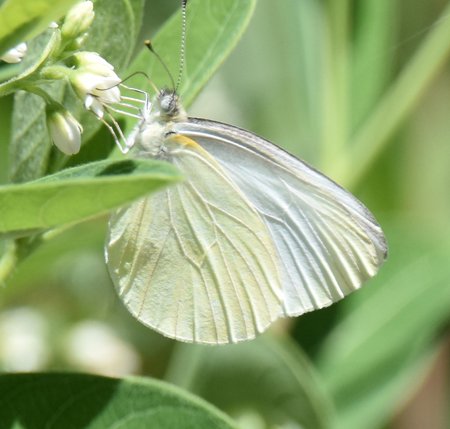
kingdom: Animalia
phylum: Arthropoda
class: Insecta
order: Lepidoptera
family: Pieridae
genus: Pieris
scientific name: Pieris oleracea
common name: Mustard White
